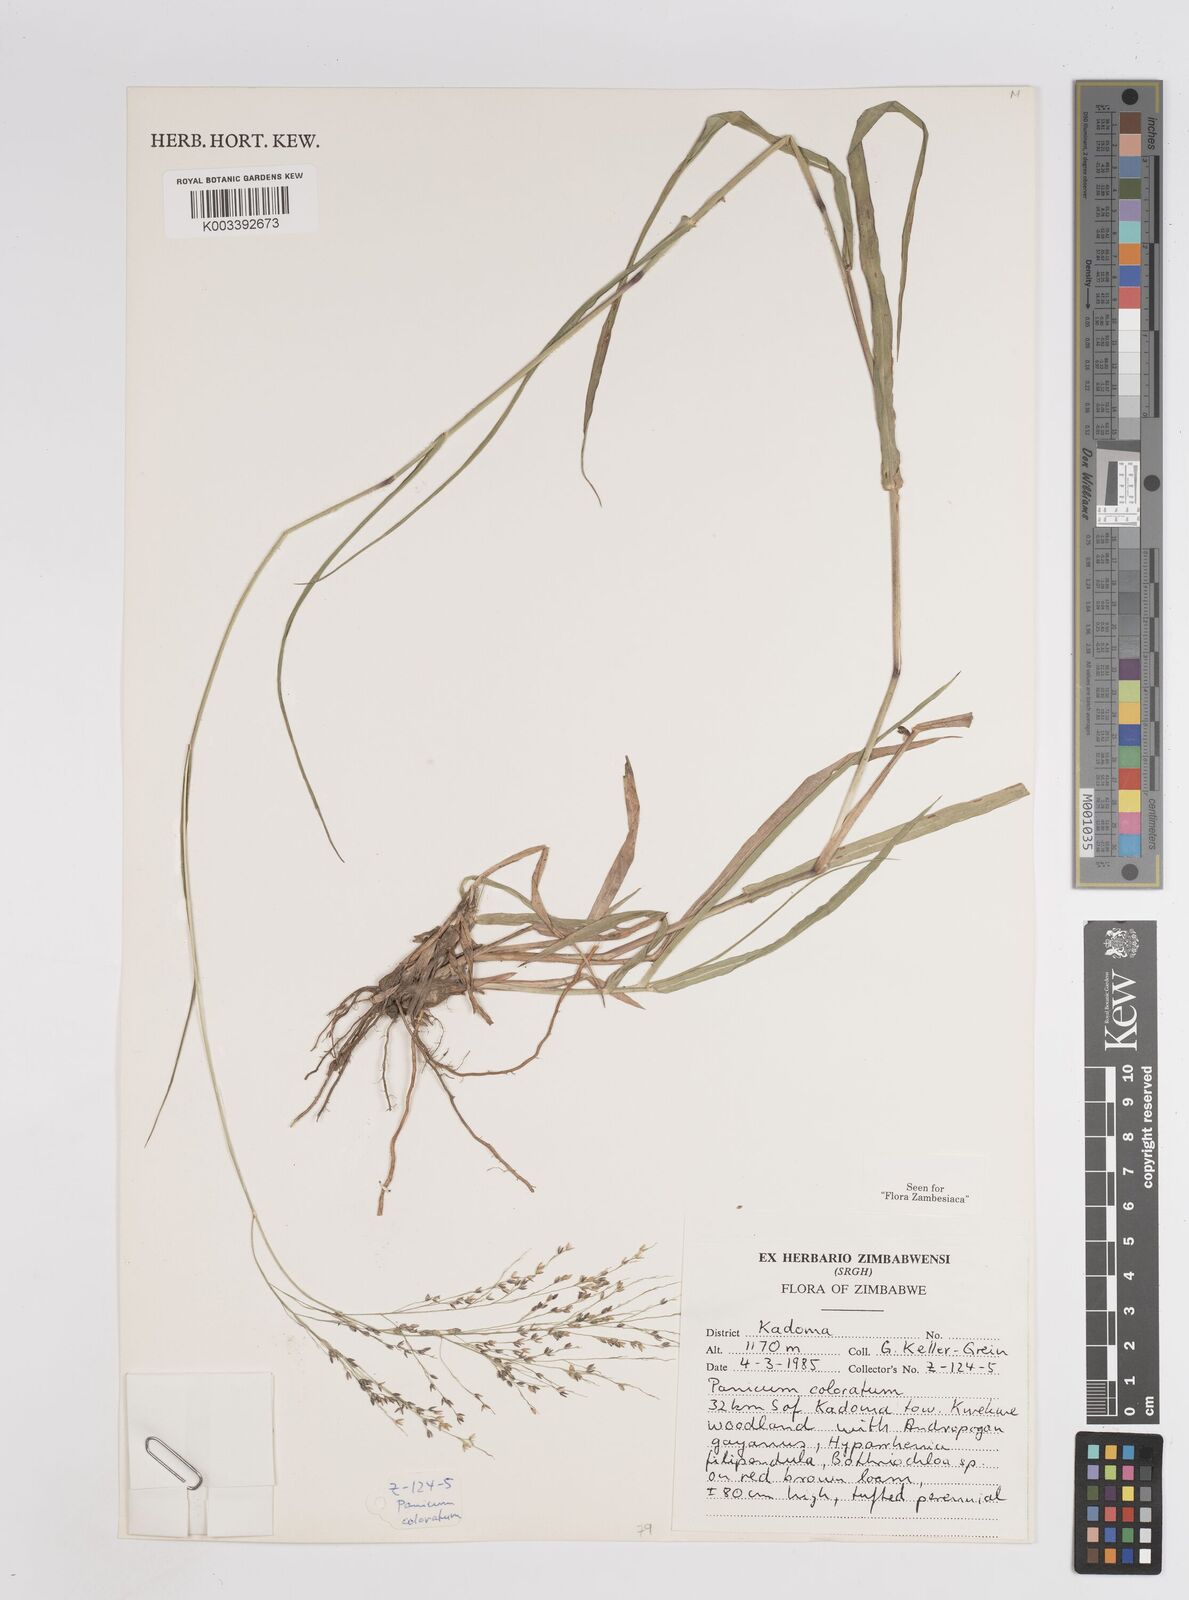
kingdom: Plantae
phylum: Tracheophyta
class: Liliopsida
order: Poales
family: Poaceae
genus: Panicum
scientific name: Panicum coloratum
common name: Kleingrass
